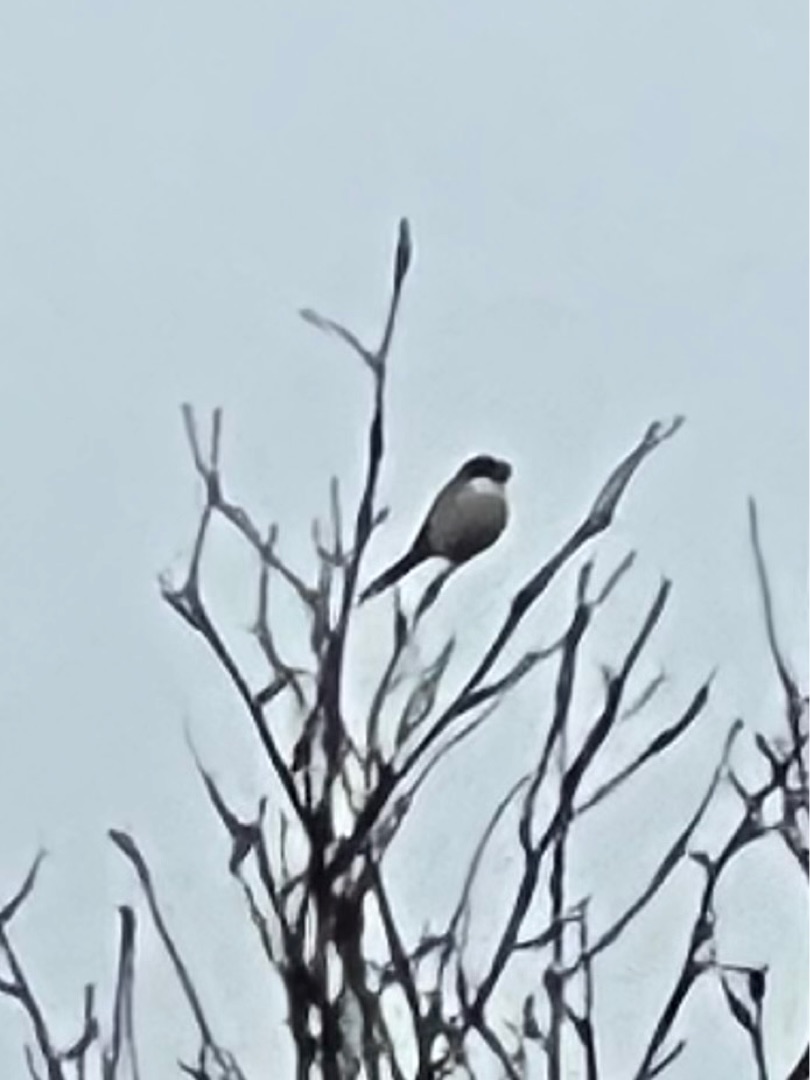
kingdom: Animalia
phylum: Chordata
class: Aves
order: Passeriformes
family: Laniidae
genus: Lanius
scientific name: Lanius excubitor
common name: Stor tornskade
